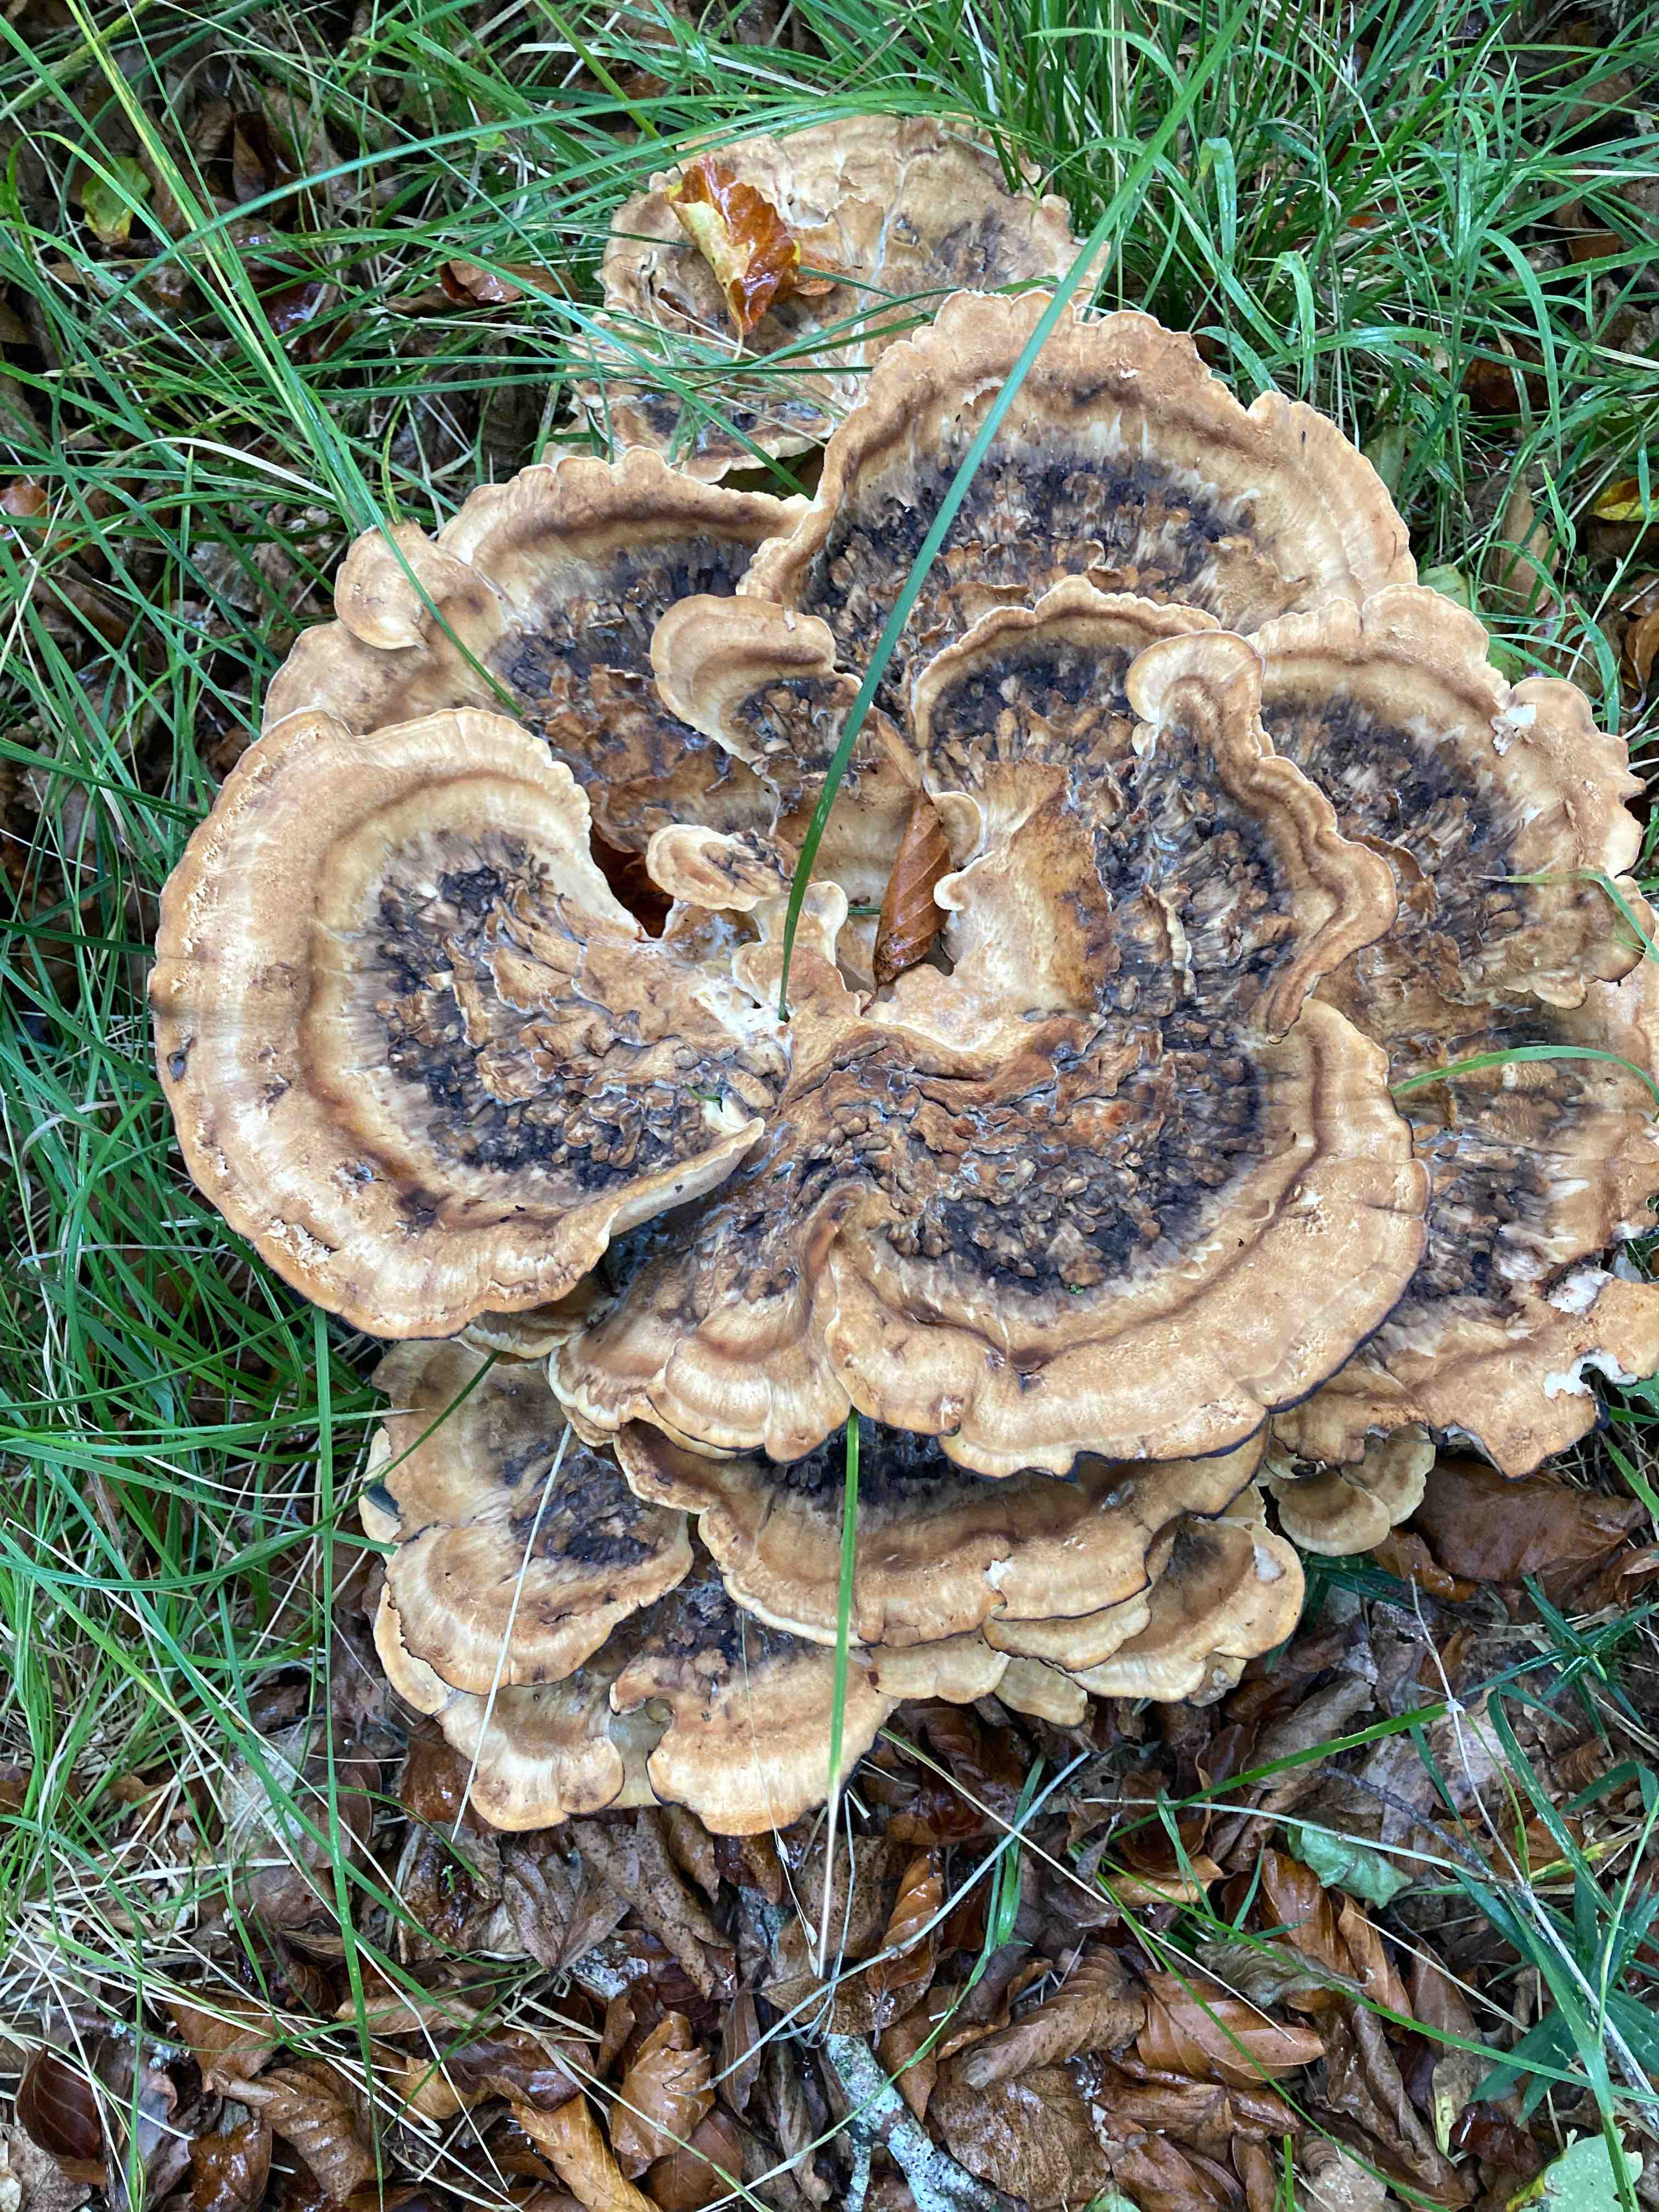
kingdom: Fungi
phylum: Basidiomycota
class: Agaricomycetes
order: Polyporales
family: Meripilaceae
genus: Meripilus
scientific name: Meripilus giganteus
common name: kæmpeporesvamp
